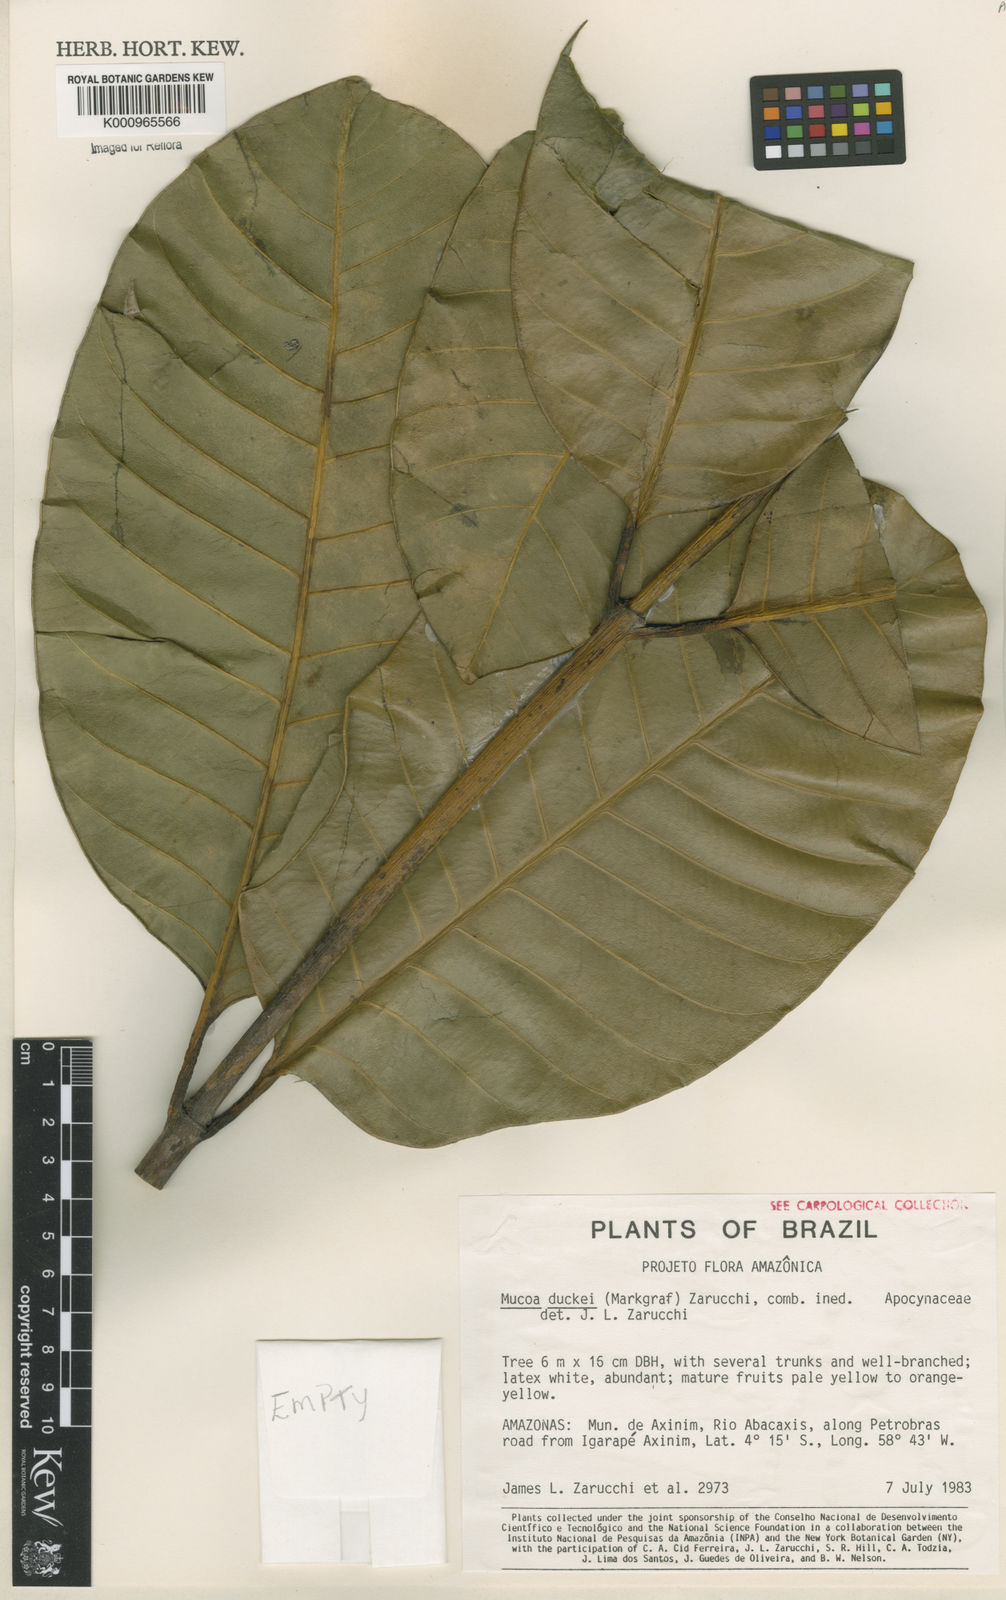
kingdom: Plantae
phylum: Tracheophyta
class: Magnoliopsida
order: Gentianales
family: Apocynaceae
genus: Mucoa
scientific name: Mucoa duckei
